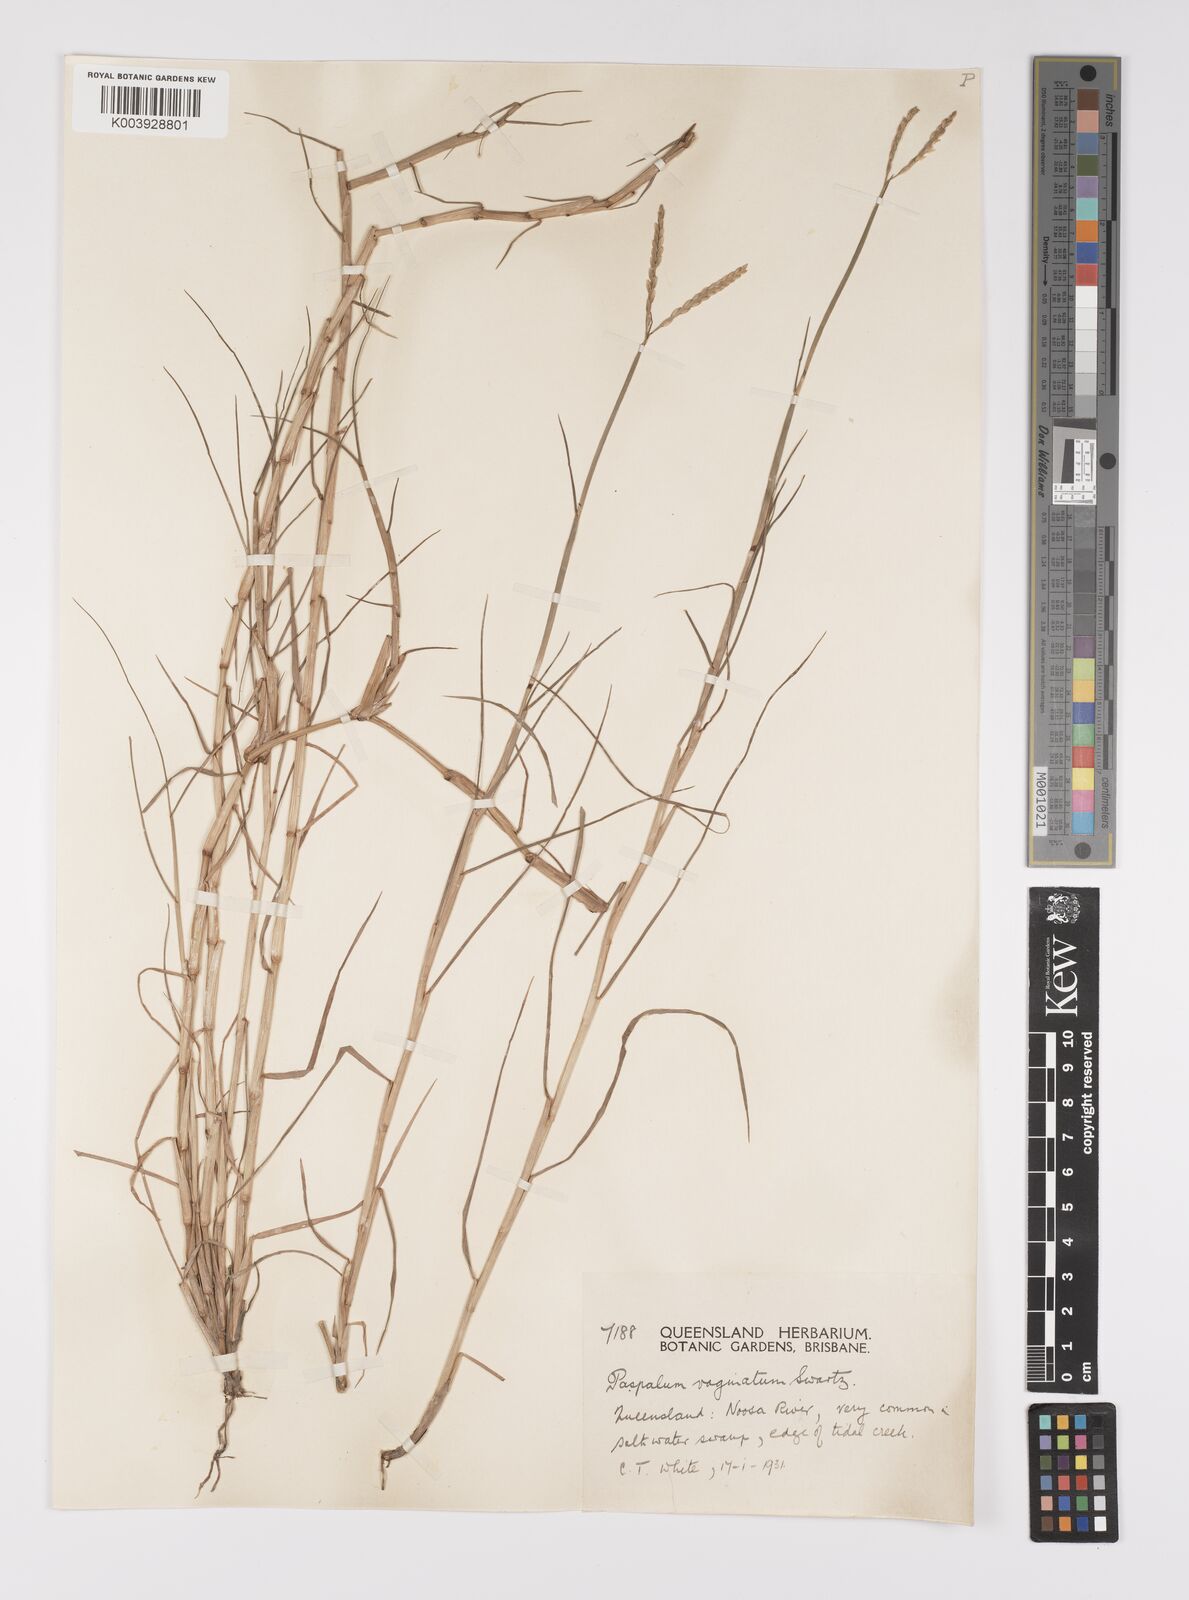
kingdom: Plantae
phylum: Tracheophyta
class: Liliopsida
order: Poales
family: Poaceae
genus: Paspalum
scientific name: Paspalum vaginatum
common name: Seashore paspalum
